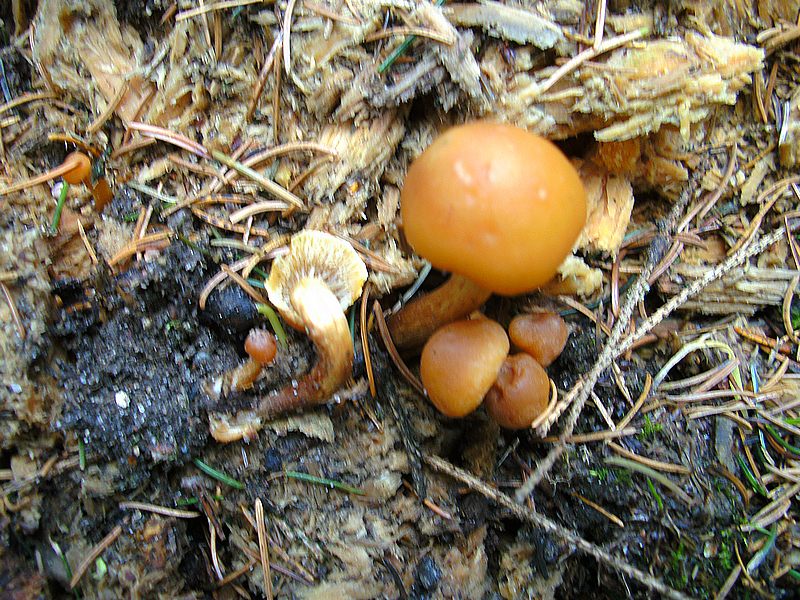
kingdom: Fungi
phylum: Basidiomycota
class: Agaricomycetes
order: Agaricales
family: Strophariaceae
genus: Hypholoma
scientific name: Hypholoma capnoides
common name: gran-svovlhat
